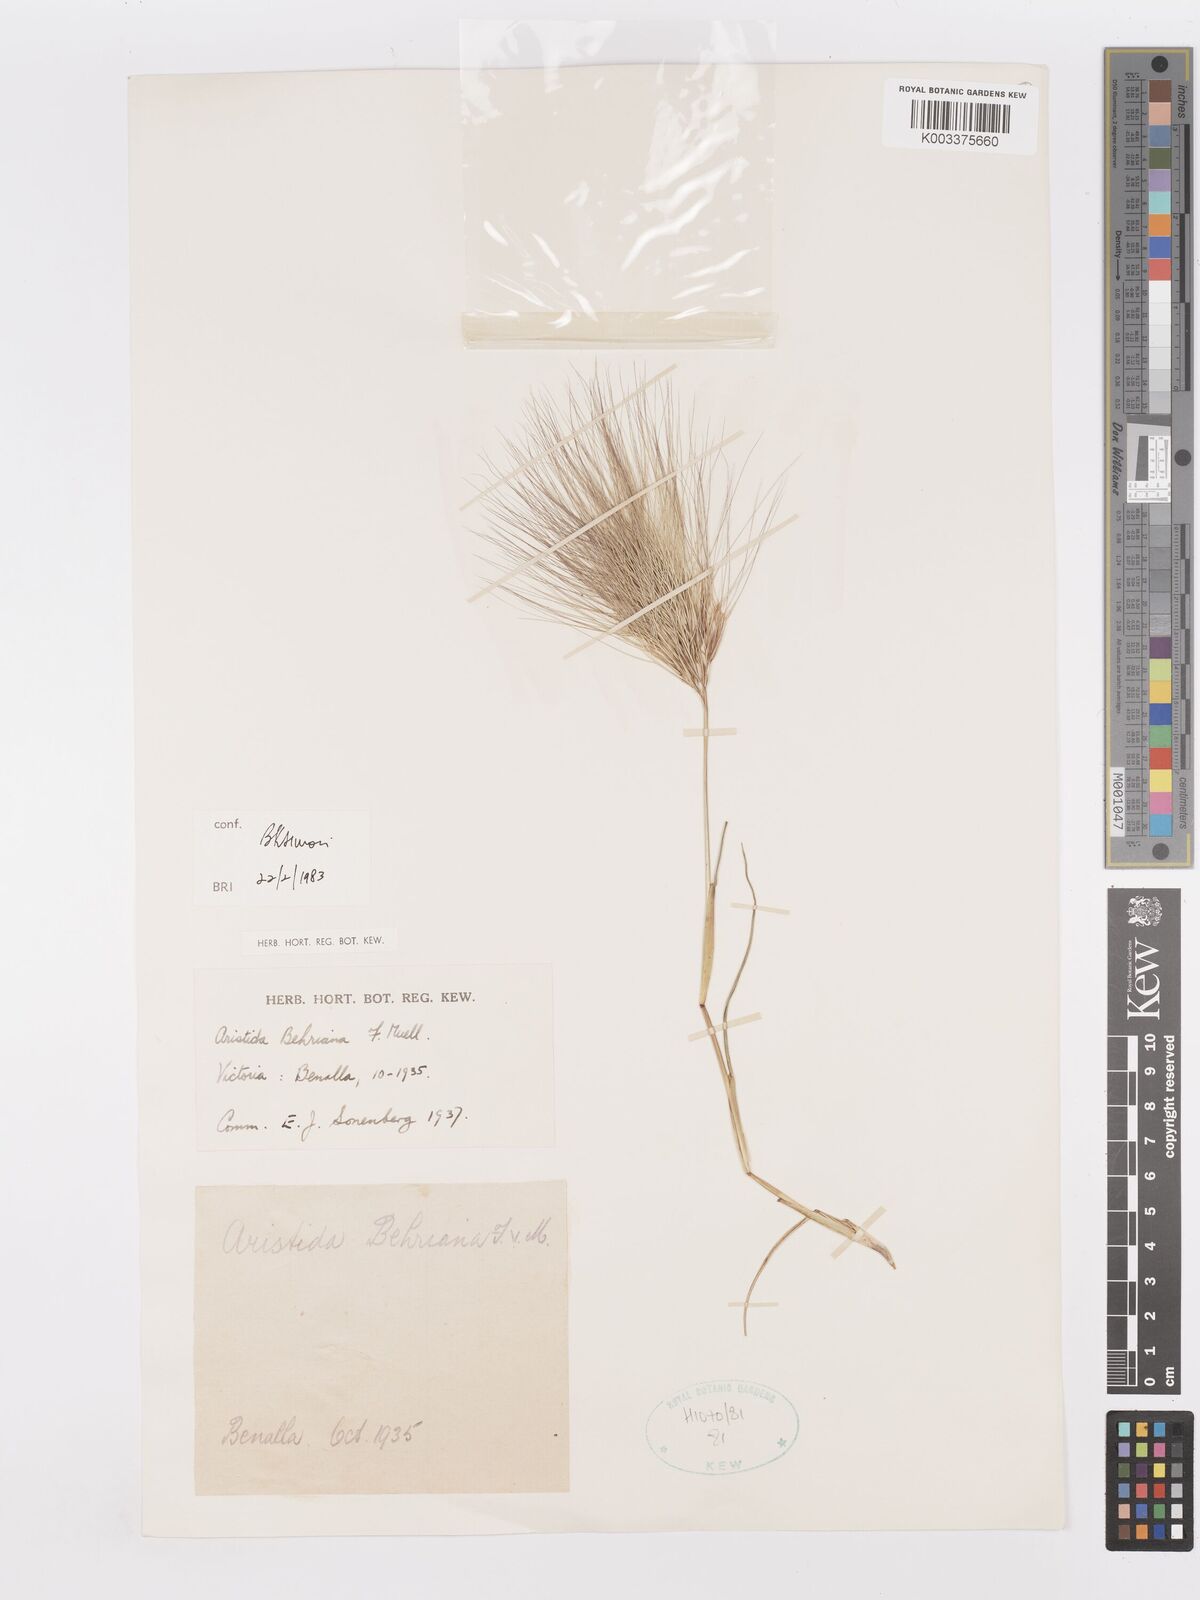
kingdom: Plantae
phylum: Tracheophyta
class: Liliopsida
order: Poales
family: Poaceae
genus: Aristida
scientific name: Aristida behriana
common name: Long-awn wire grass
